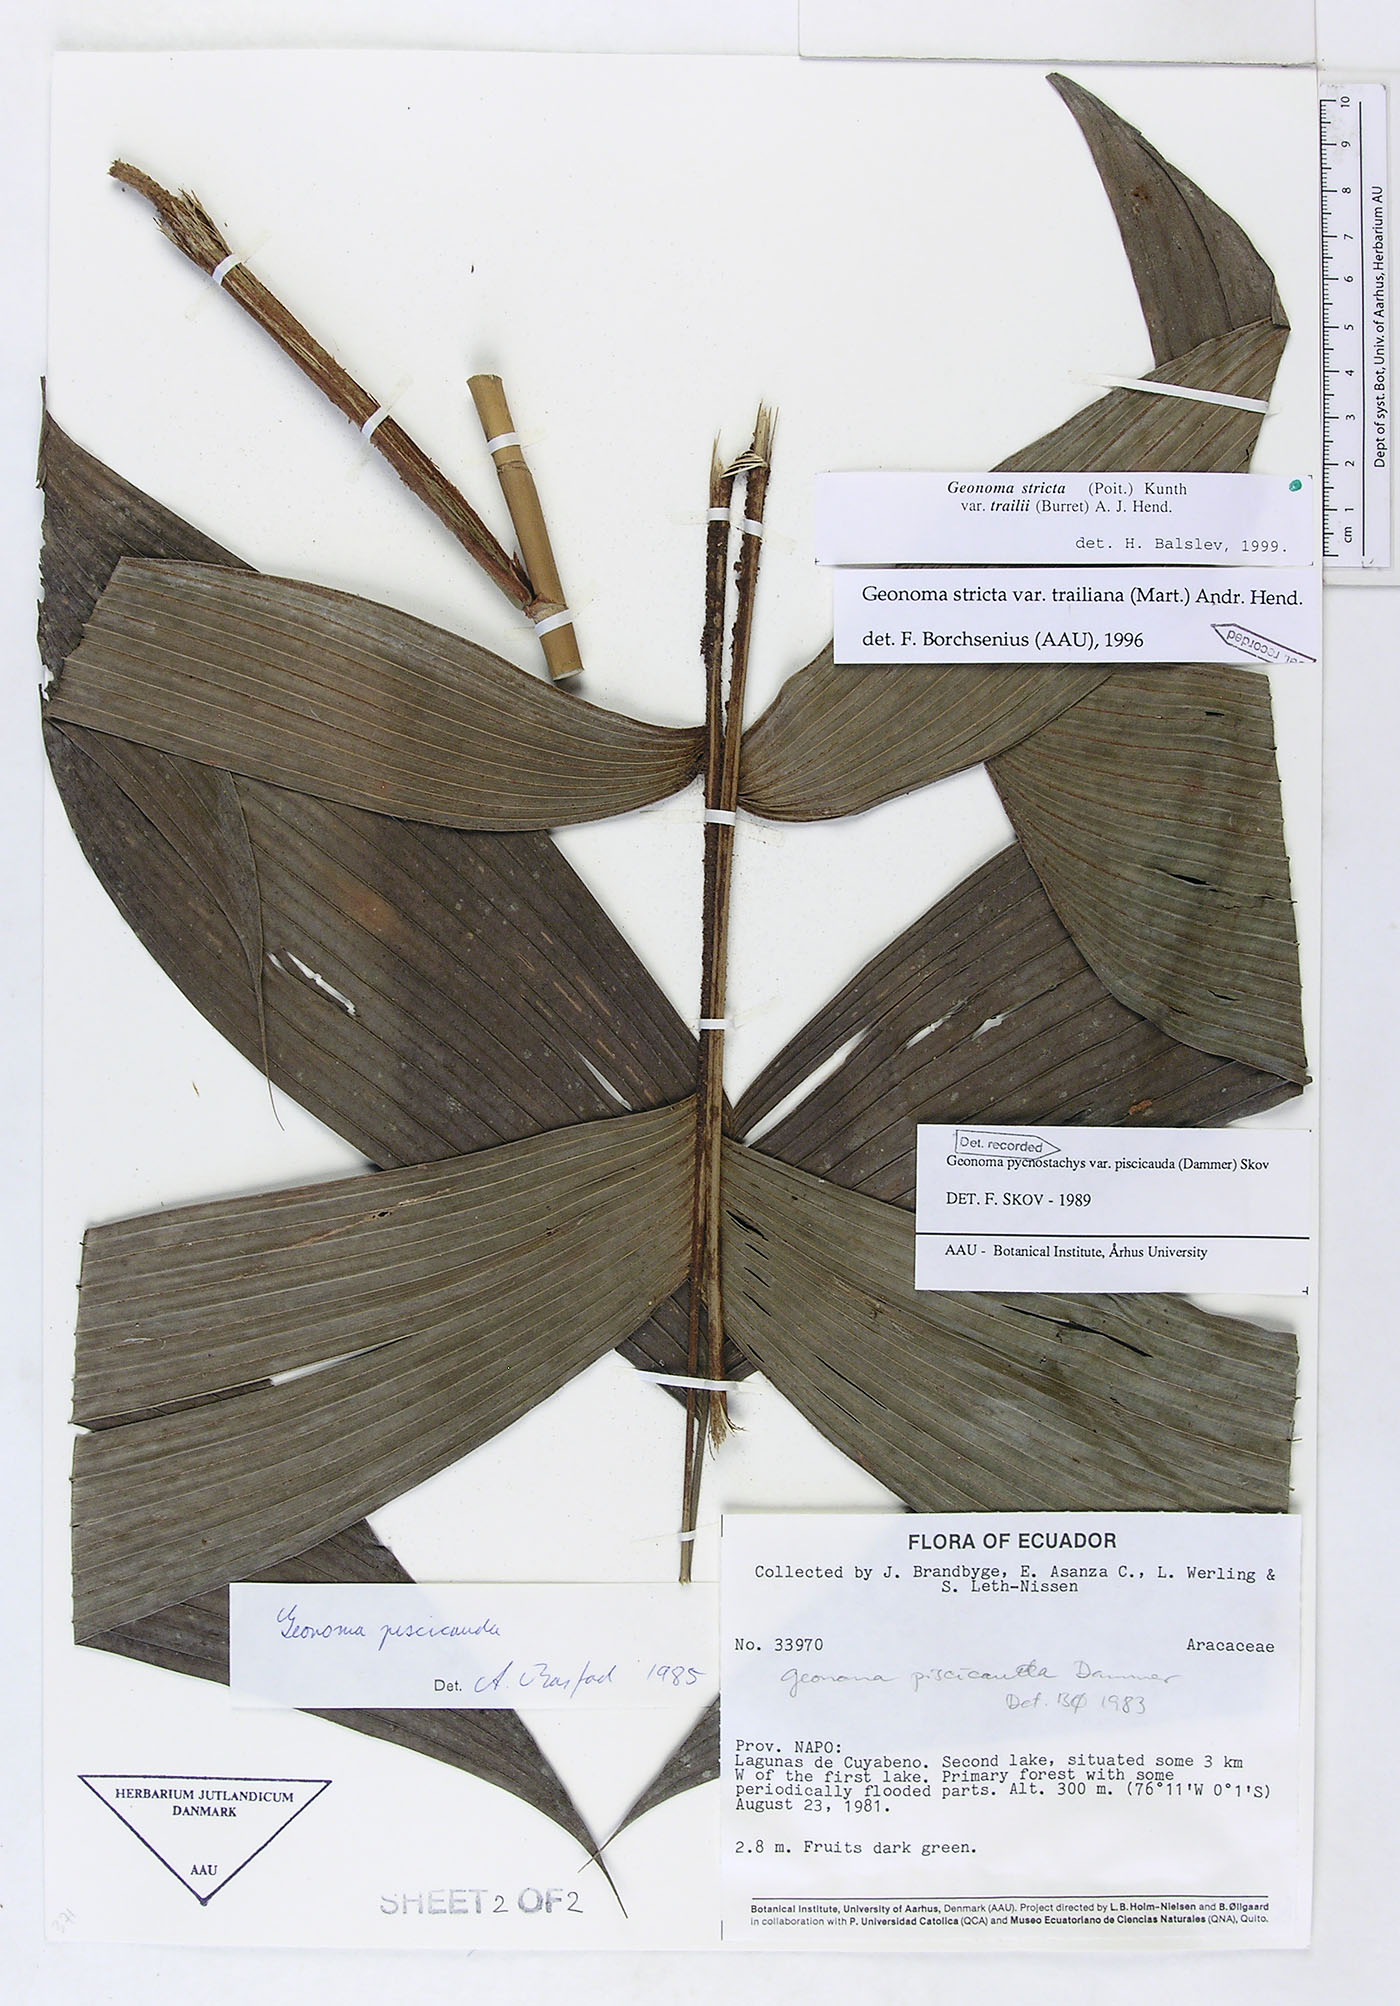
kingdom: Plantae
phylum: Tracheophyta
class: Liliopsida
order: Arecales
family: Arecaceae
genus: Geonoma
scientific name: Geonoma stricta
